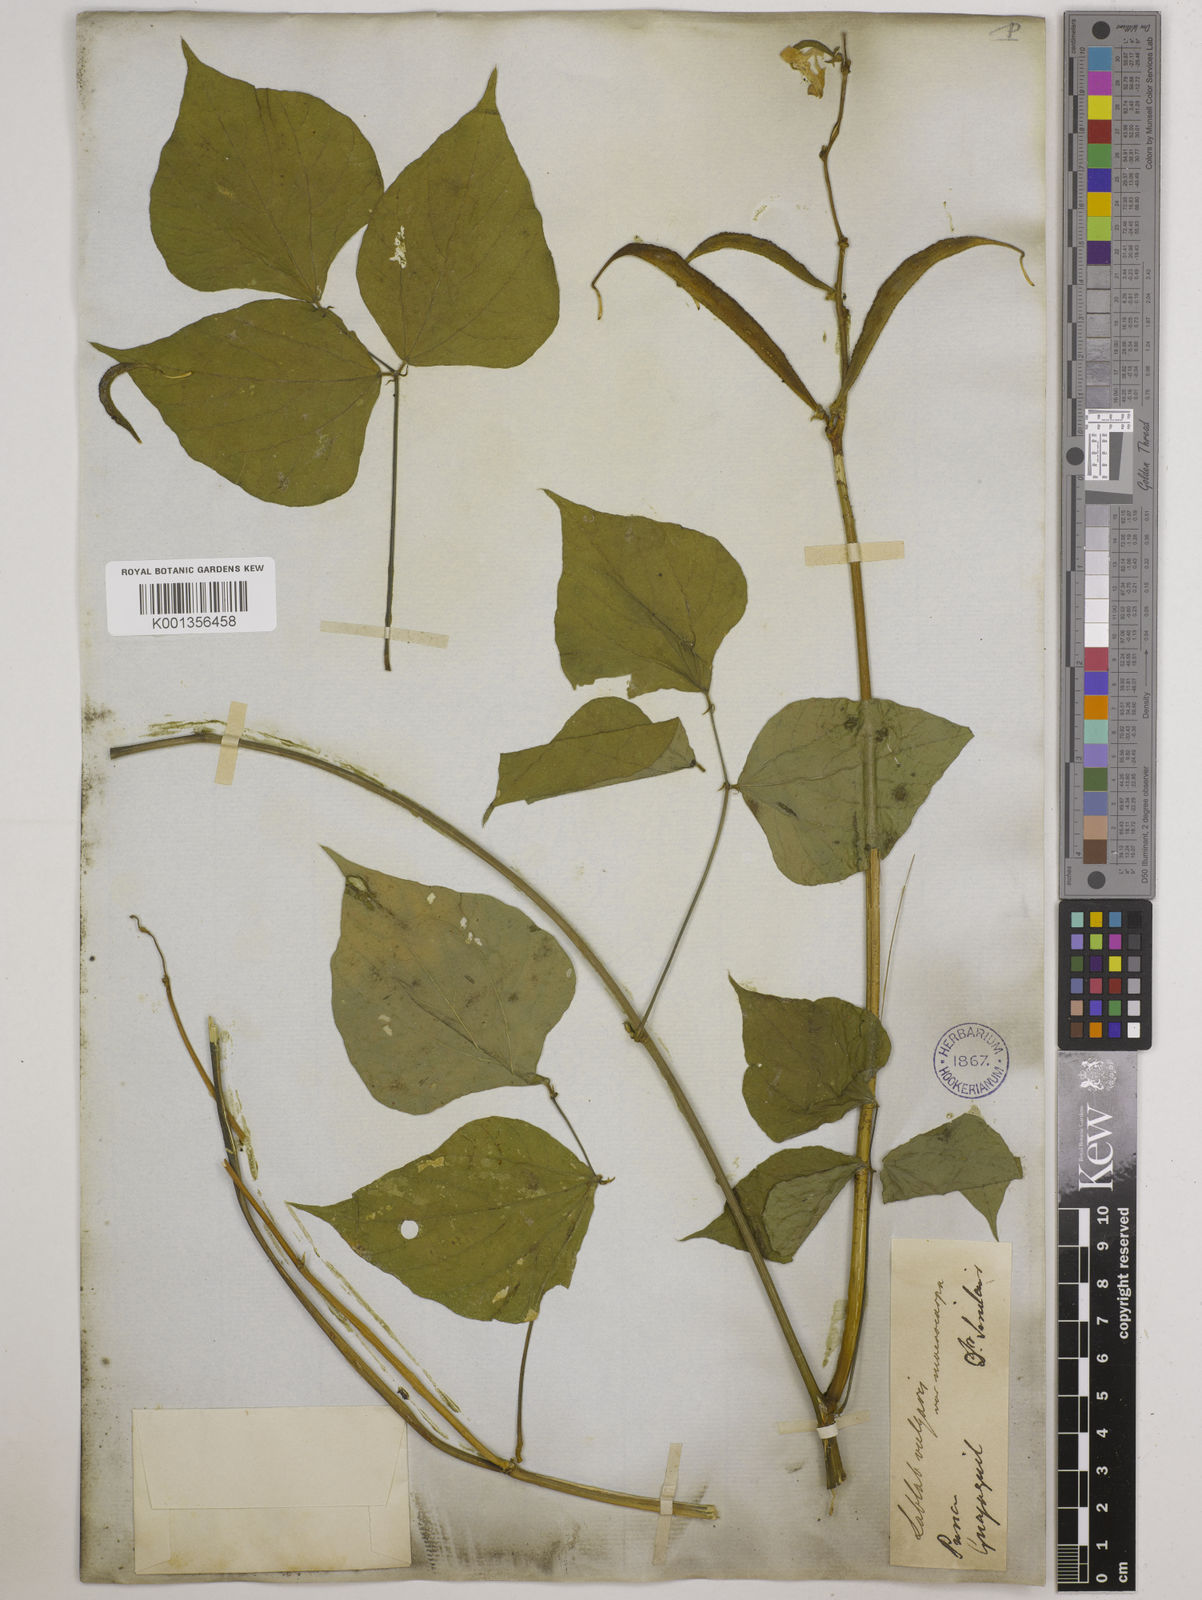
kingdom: Plantae
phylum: Tracheophyta
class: Magnoliopsida
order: Fabales
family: Fabaceae
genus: Lablab
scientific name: Lablab purpureus
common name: Lablab-bean
